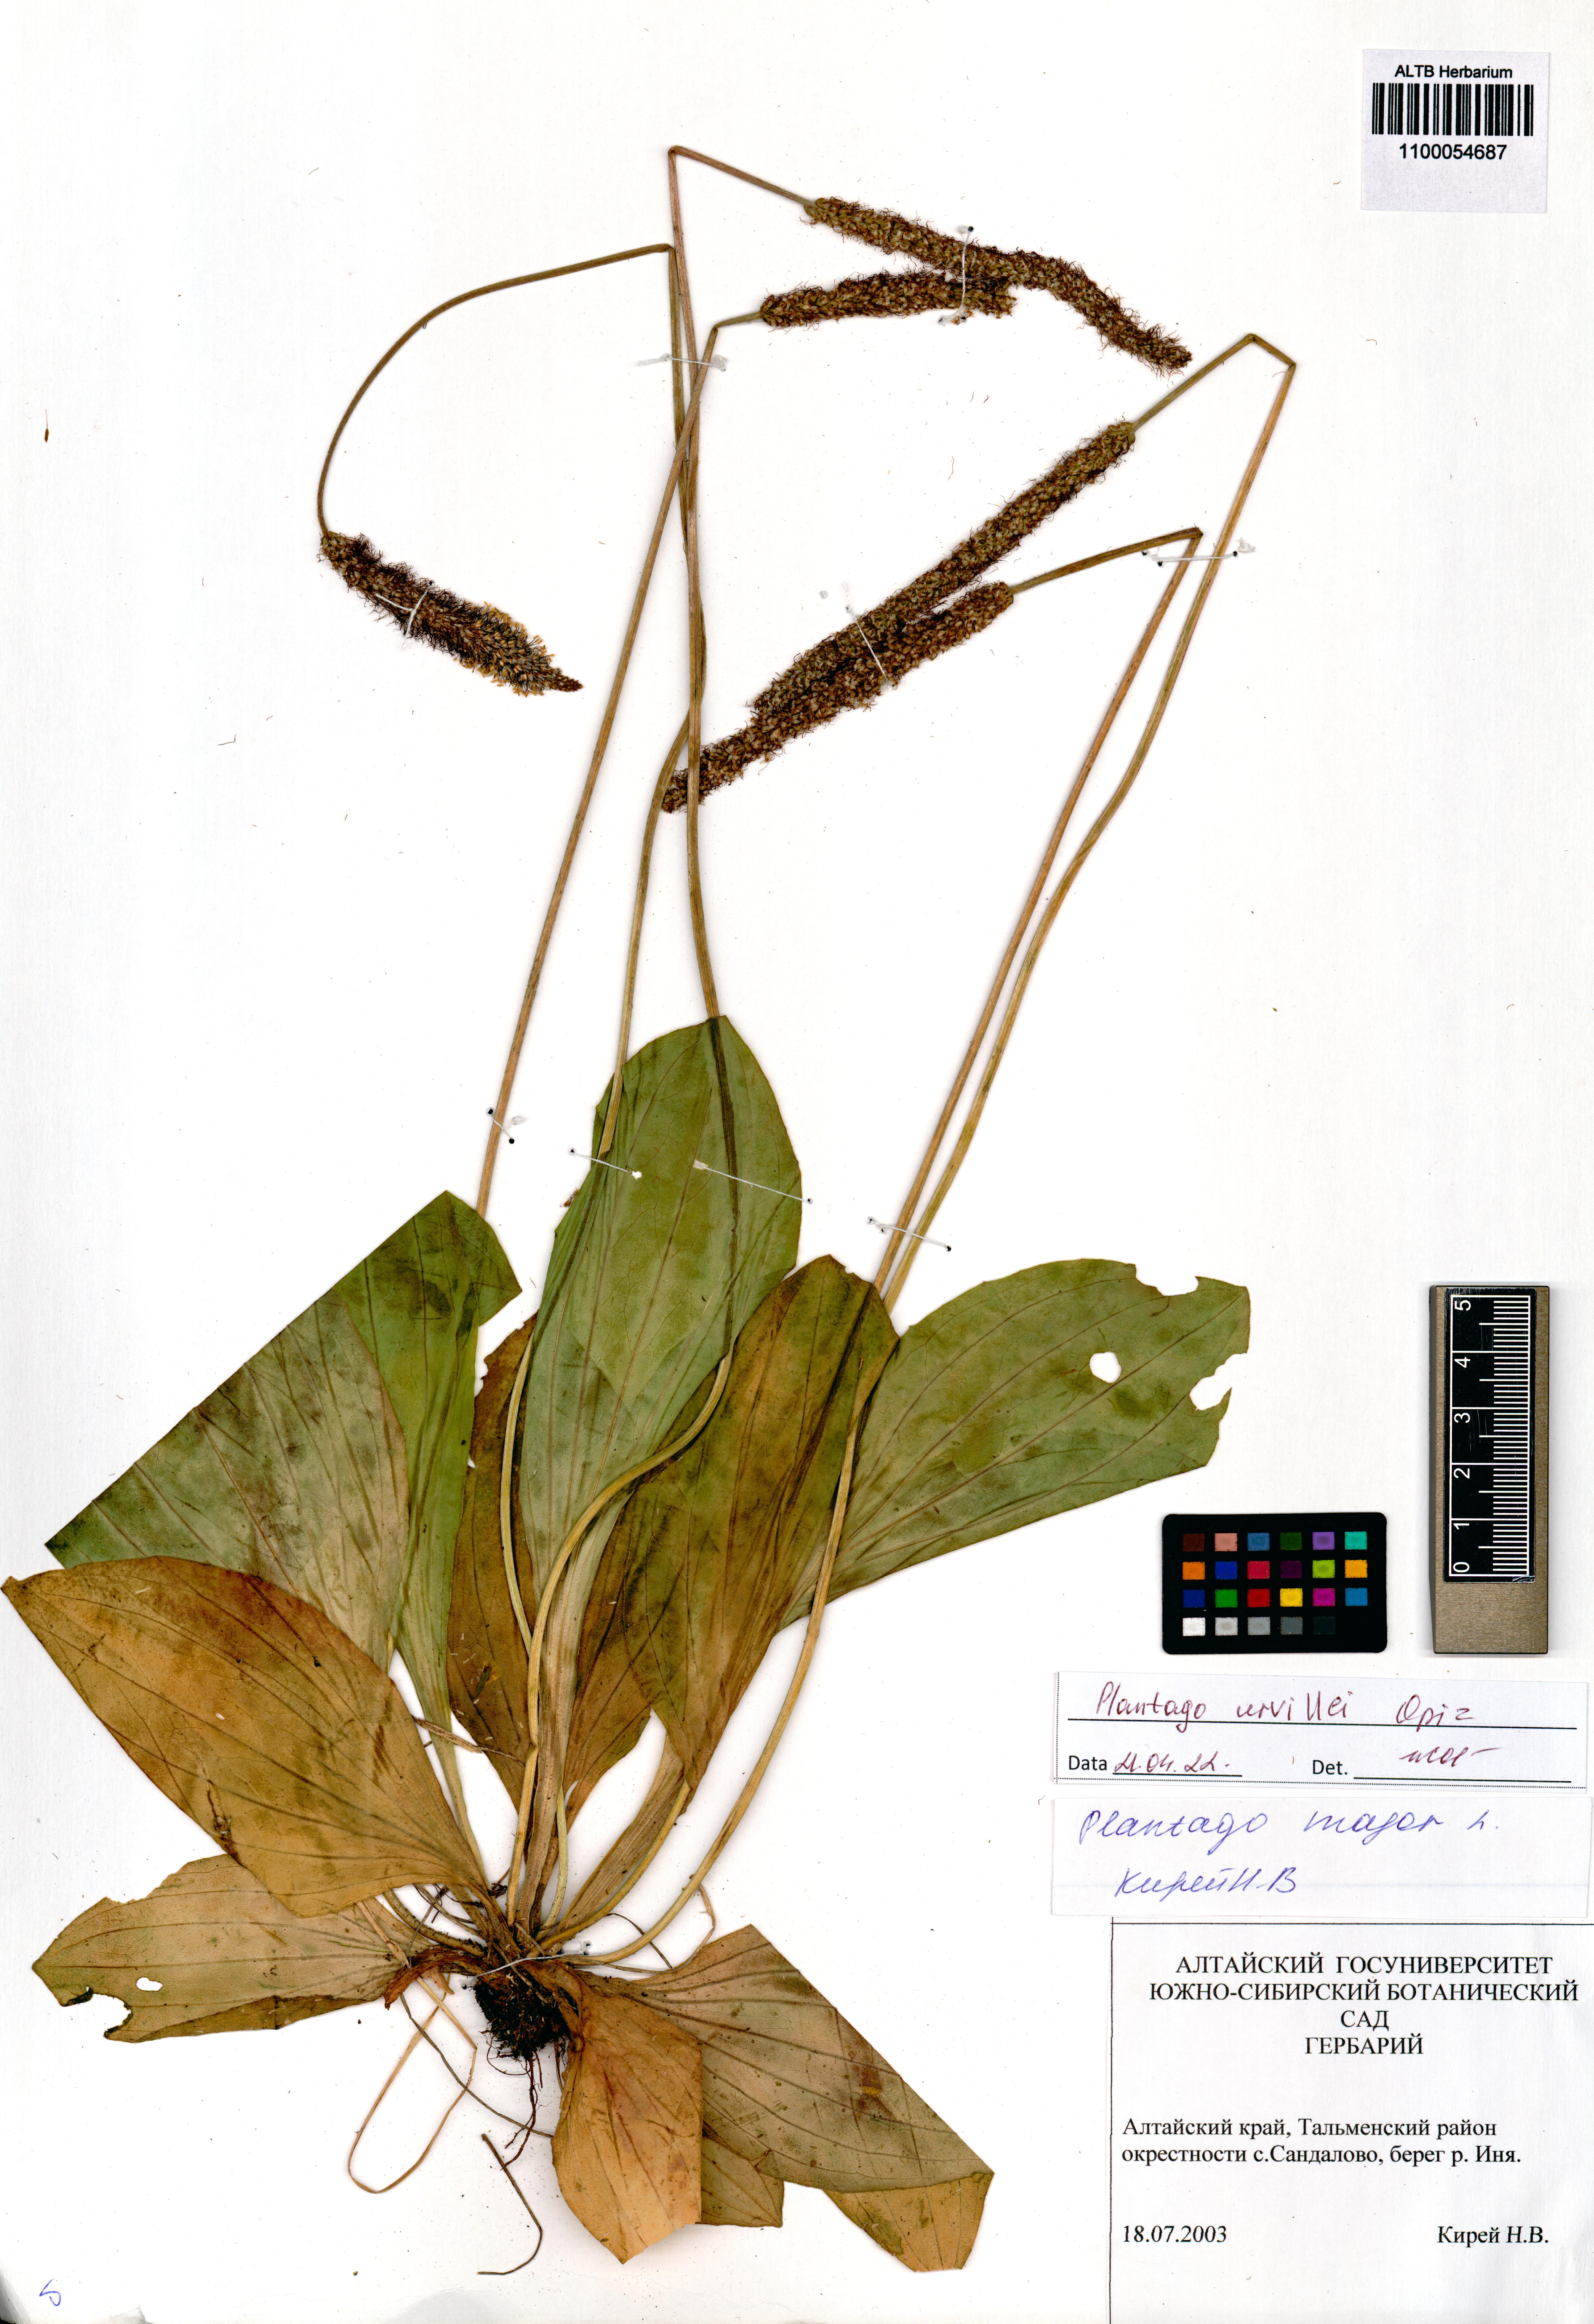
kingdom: Plantae
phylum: Tracheophyta
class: Magnoliopsida
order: Lamiales
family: Plantaginaceae
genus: Plantago
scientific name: Plantago urvillei
